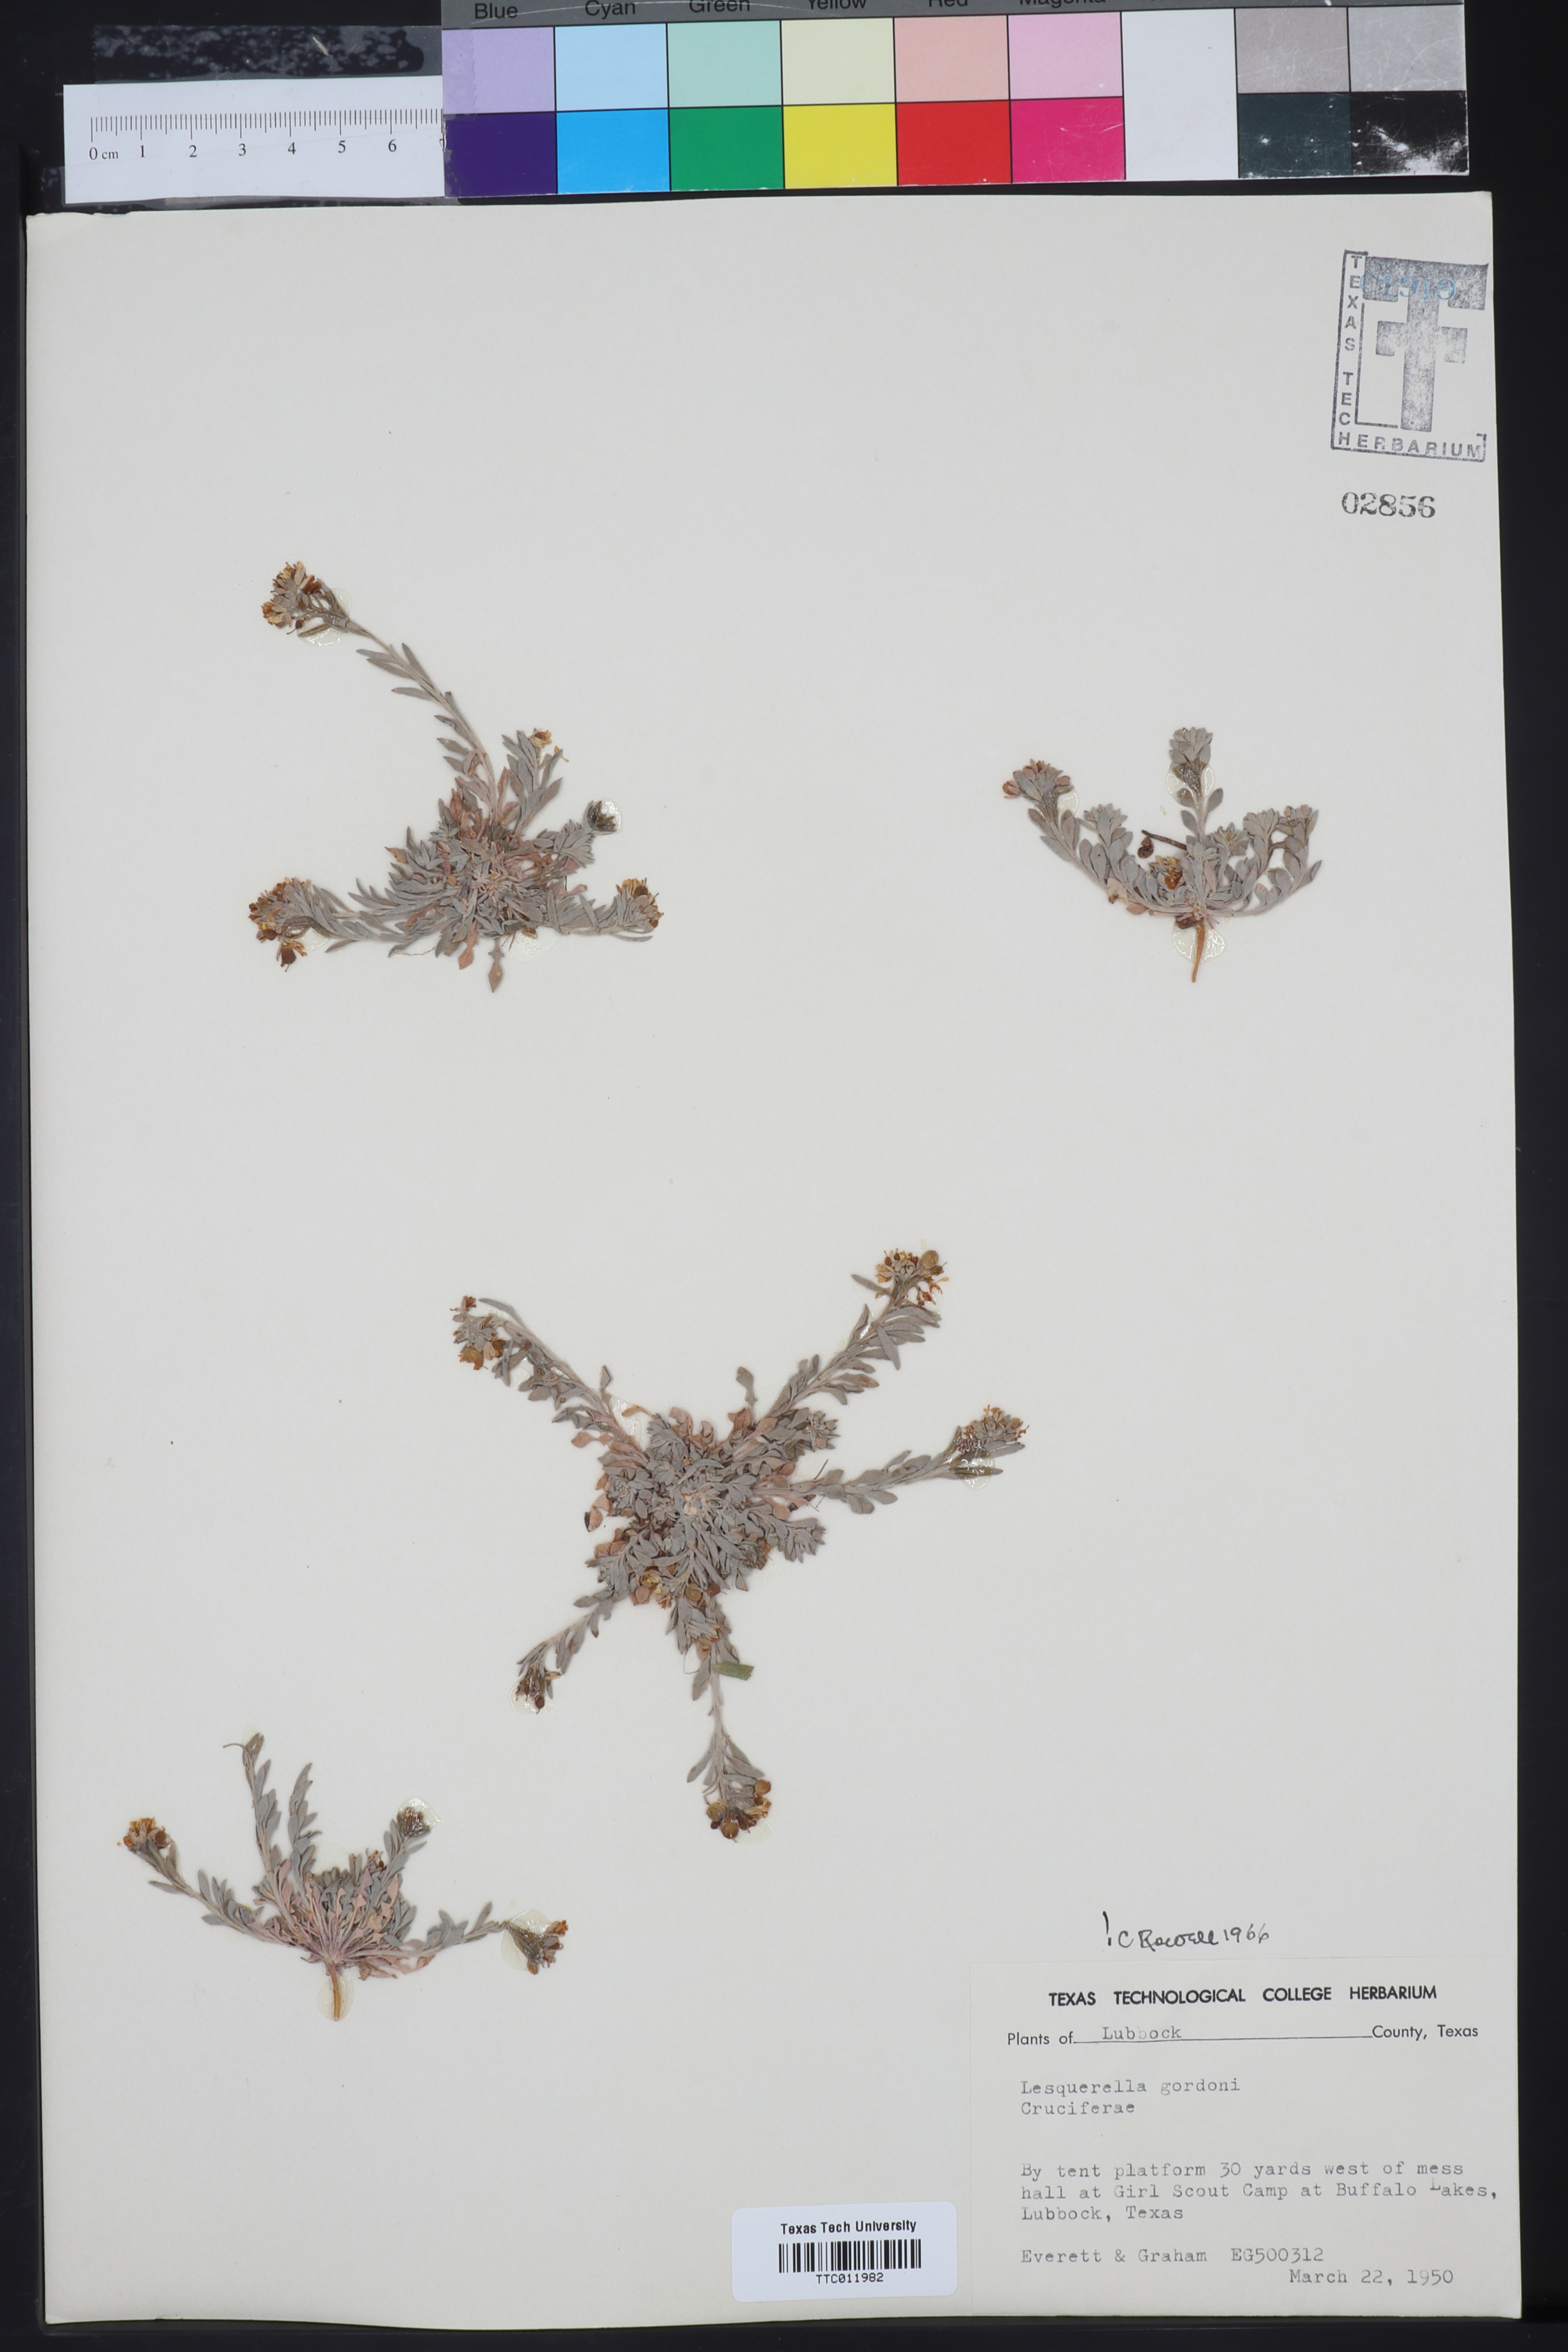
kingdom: Plantae
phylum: Tracheophyta
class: Magnoliopsida
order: Brassicales
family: Brassicaceae
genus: Physaria
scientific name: Physaria gordonii
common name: Gordon's bladderpod
